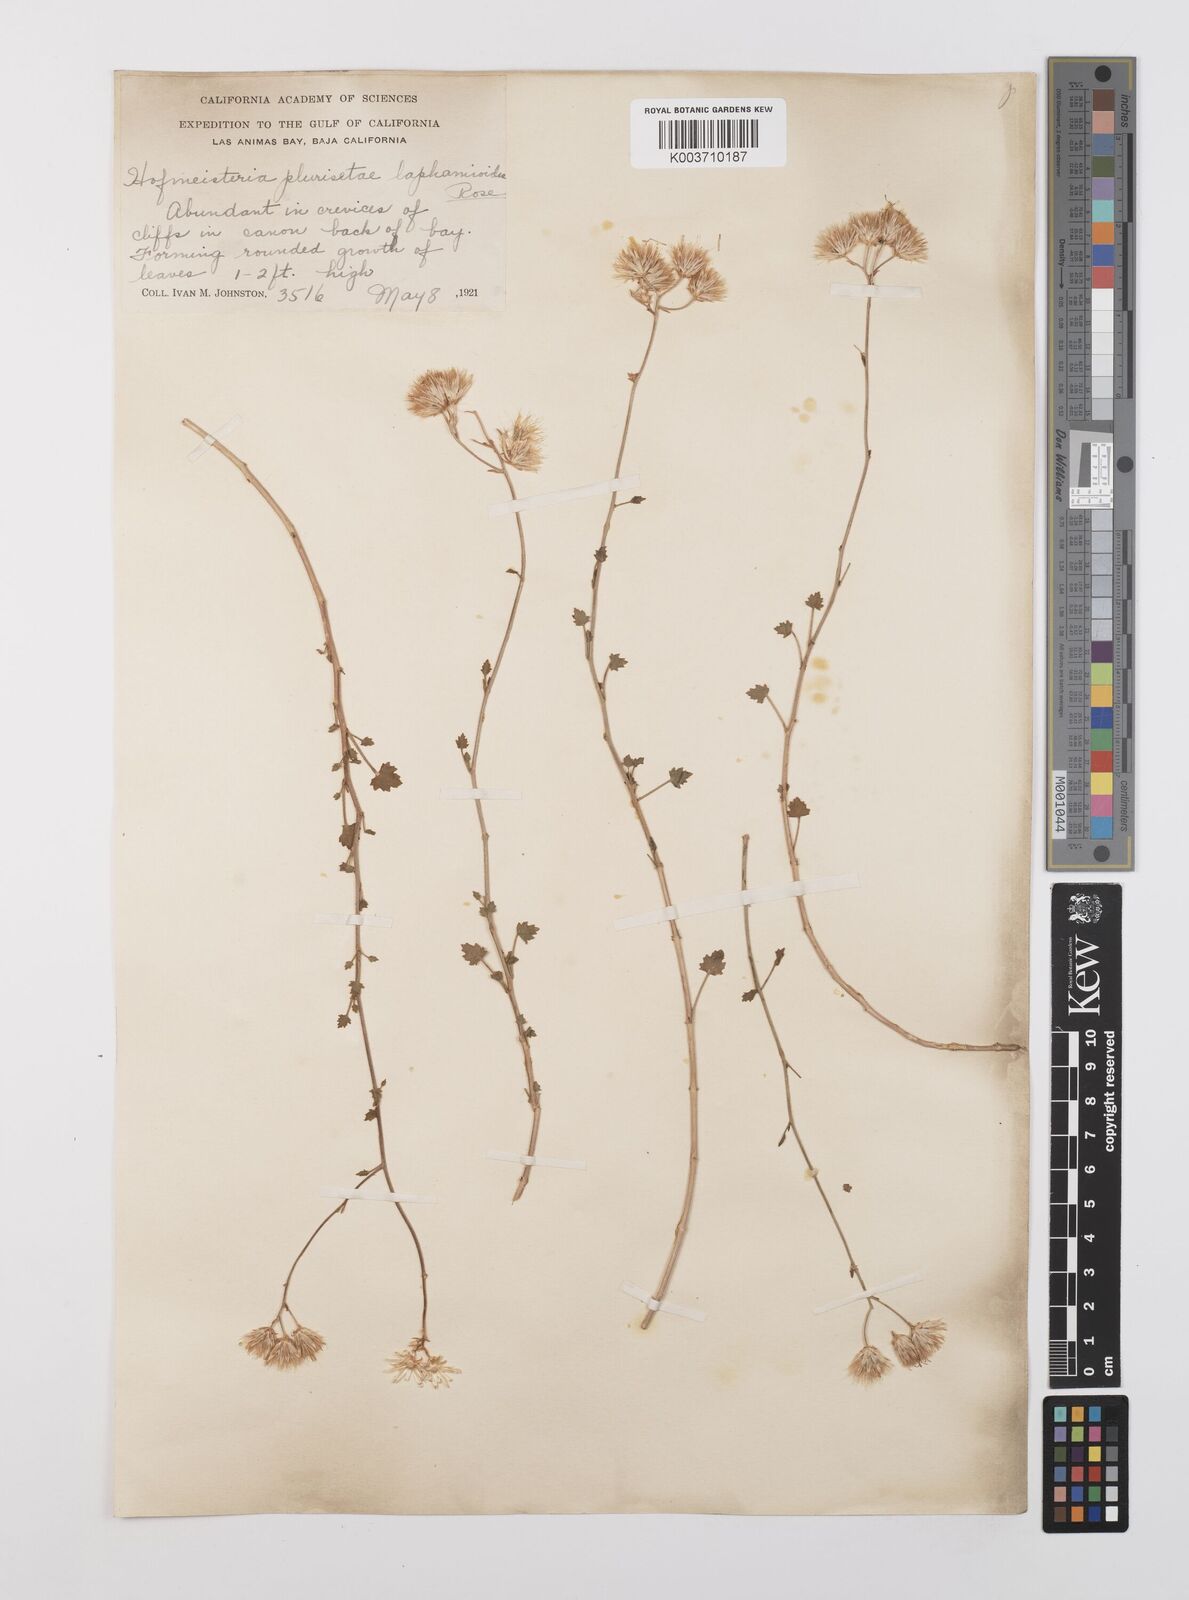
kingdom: Plantae
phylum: Tracheophyta
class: Magnoliopsida
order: Asterales
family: Asteraceae
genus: Pleurocoronis
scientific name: Pleurocoronis laphamioides
